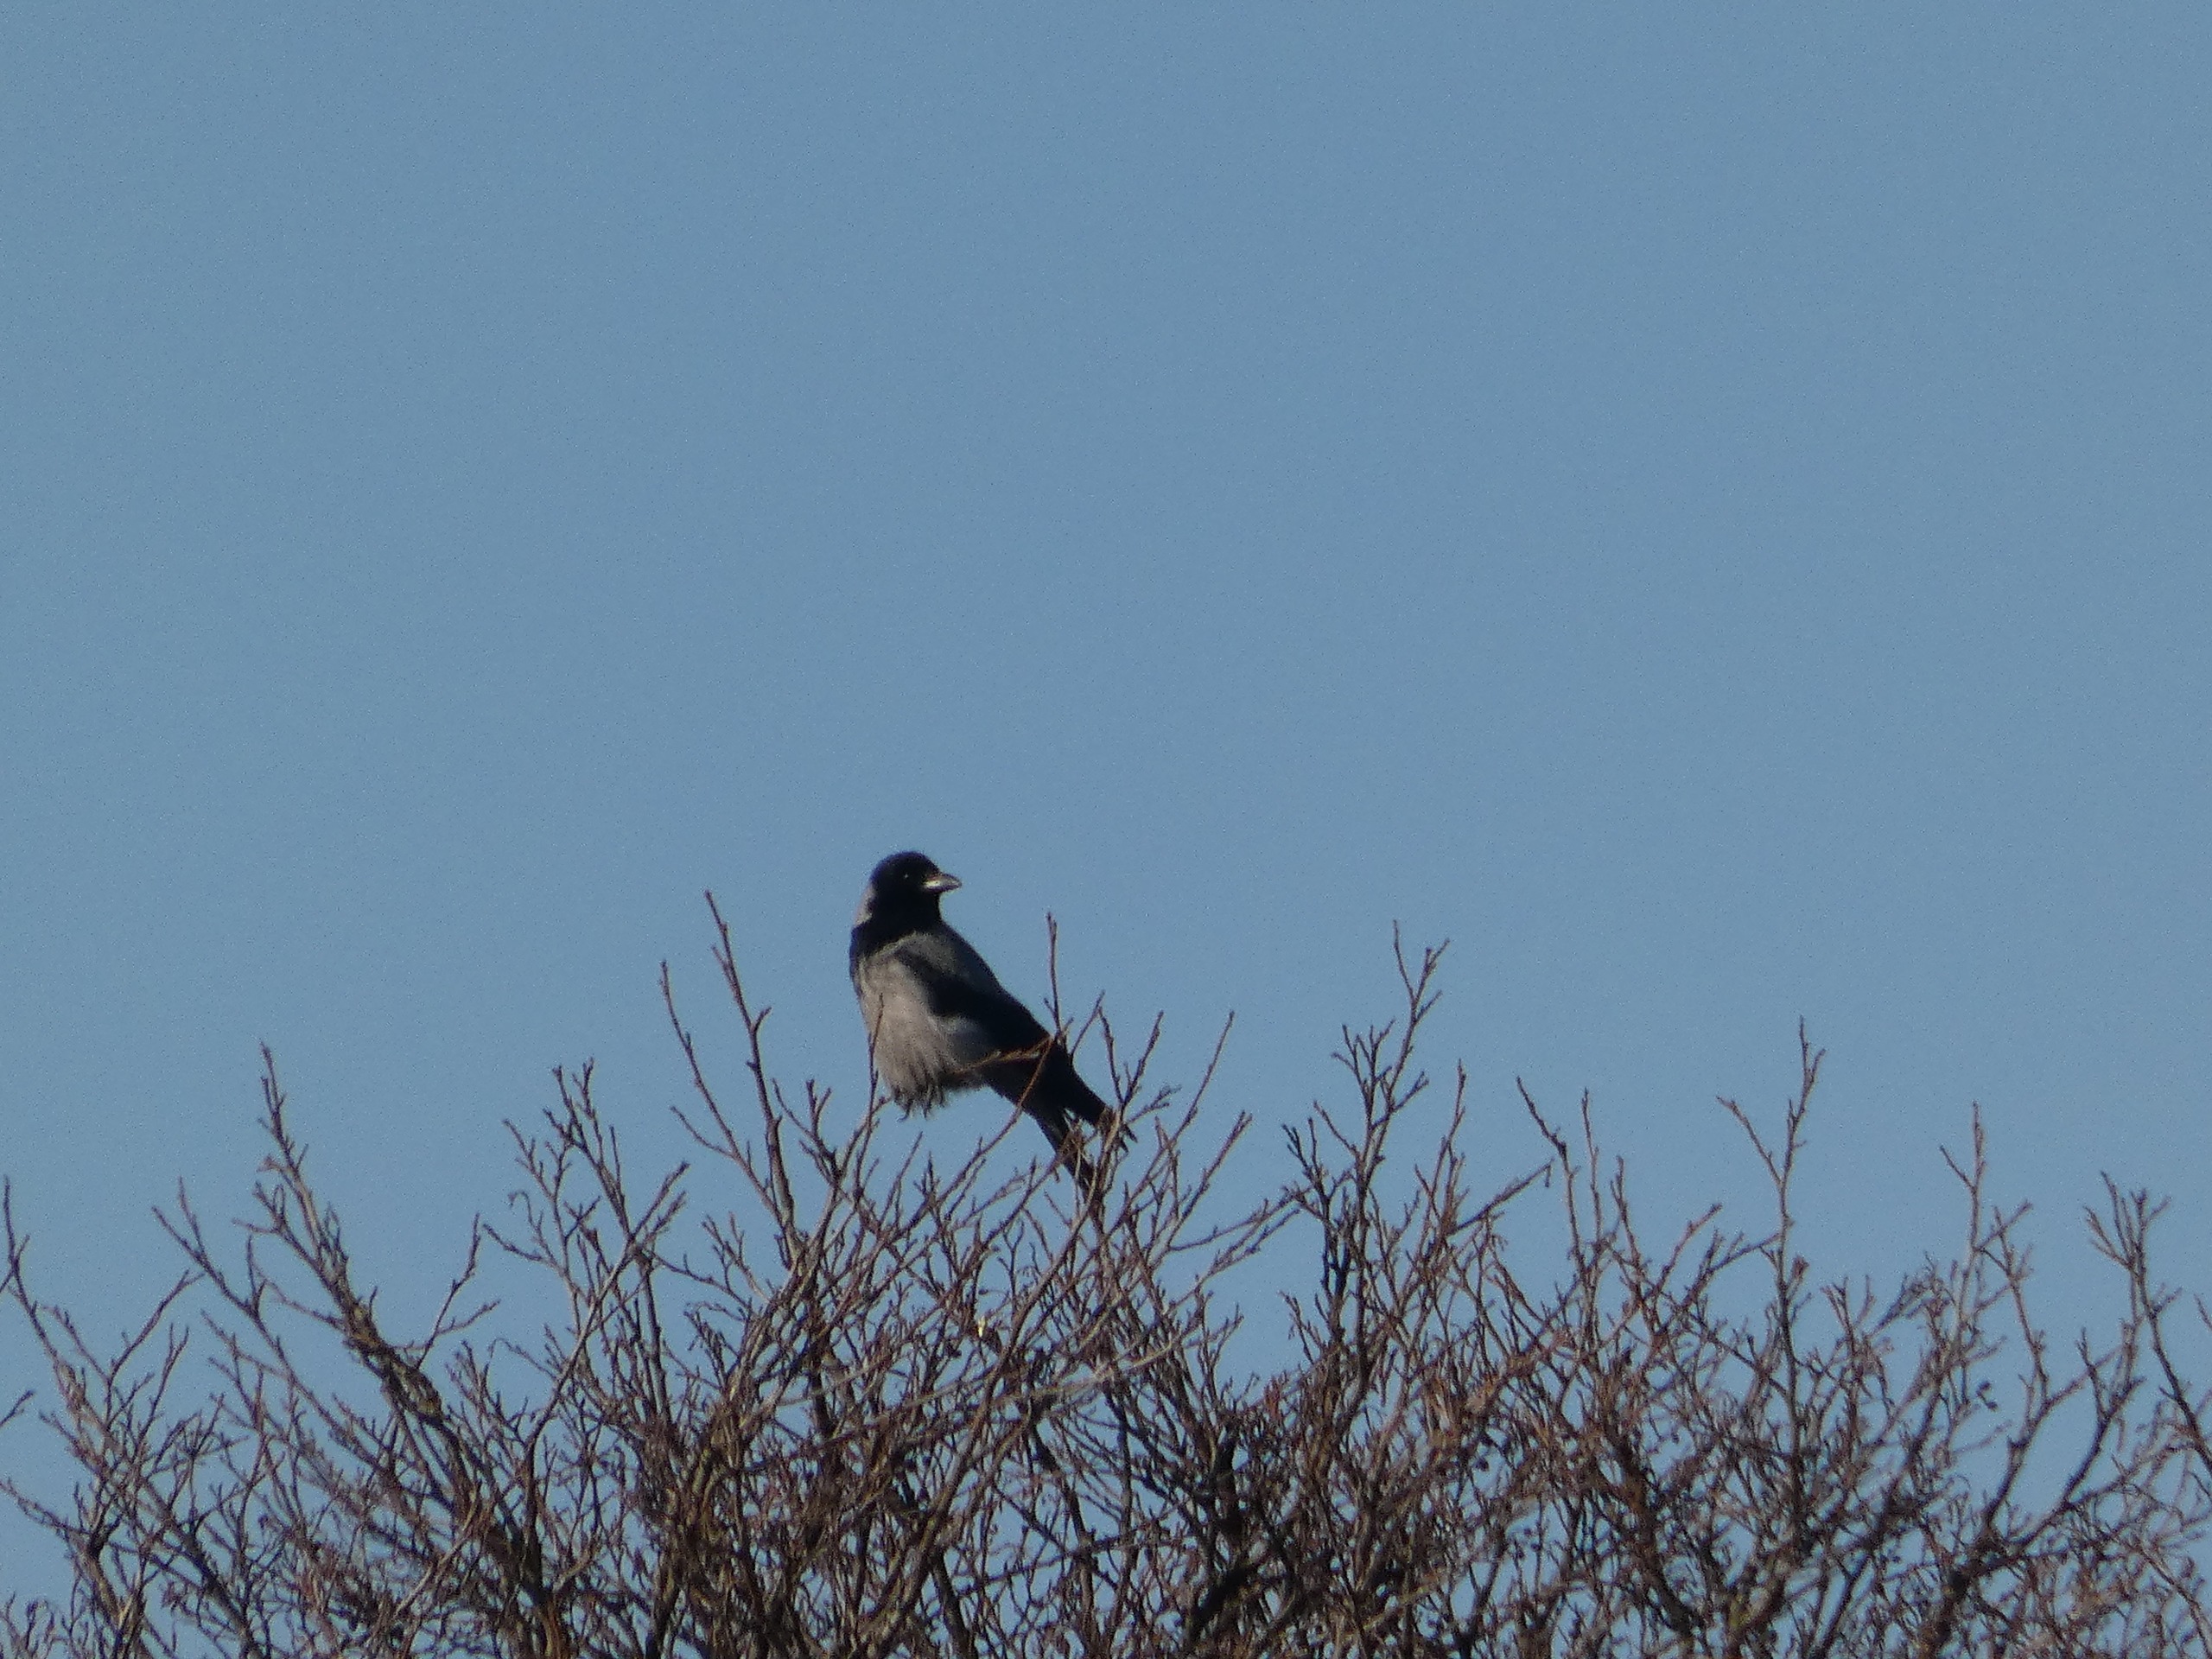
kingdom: Animalia
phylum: Chordata
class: Aves
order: Passeriformes
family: Corvidae
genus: Corvus
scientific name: Corvus cornix
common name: Gråkrage
